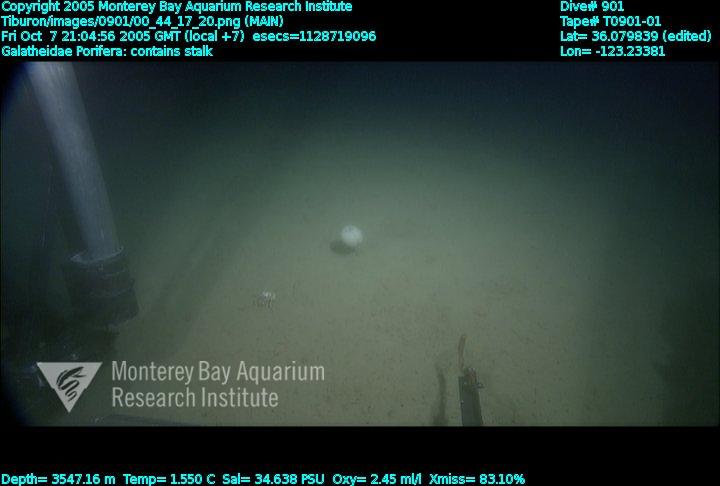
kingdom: Animalia
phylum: Porifera
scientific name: Porifera
